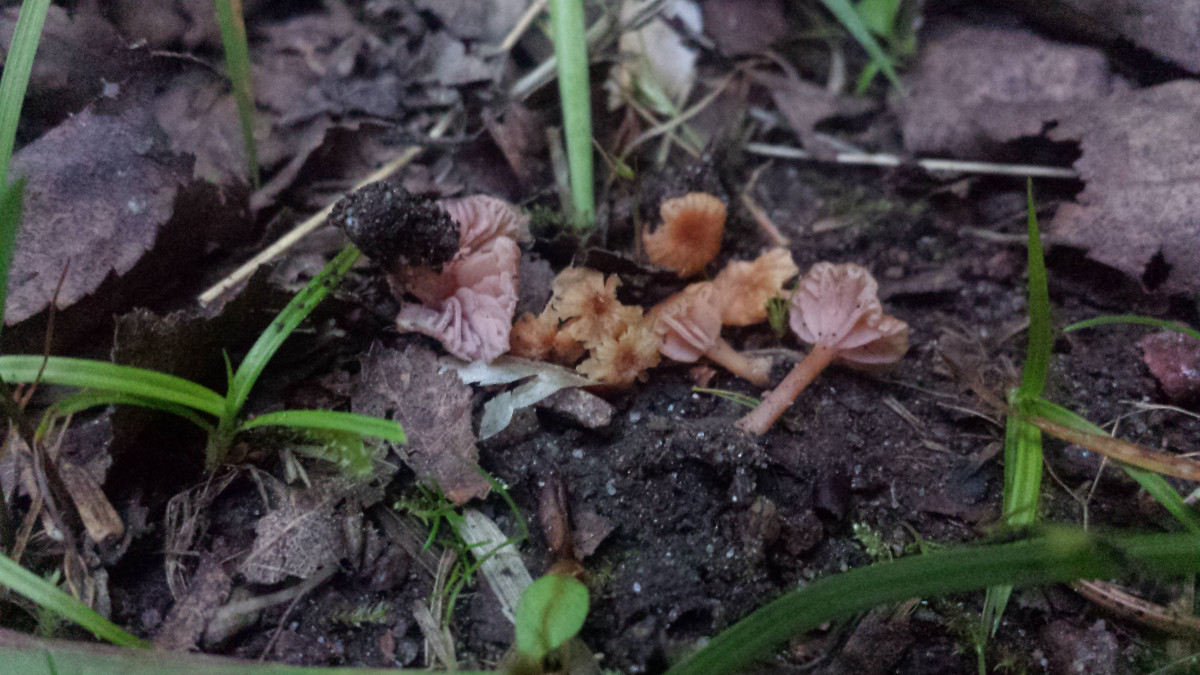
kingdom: Fungi
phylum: Basidiomycota
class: Agaricomycetes
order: Agaricales
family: Hydnangiaceae
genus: Laccaria
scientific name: Laccaria tortilis
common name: krybende ametysthat
